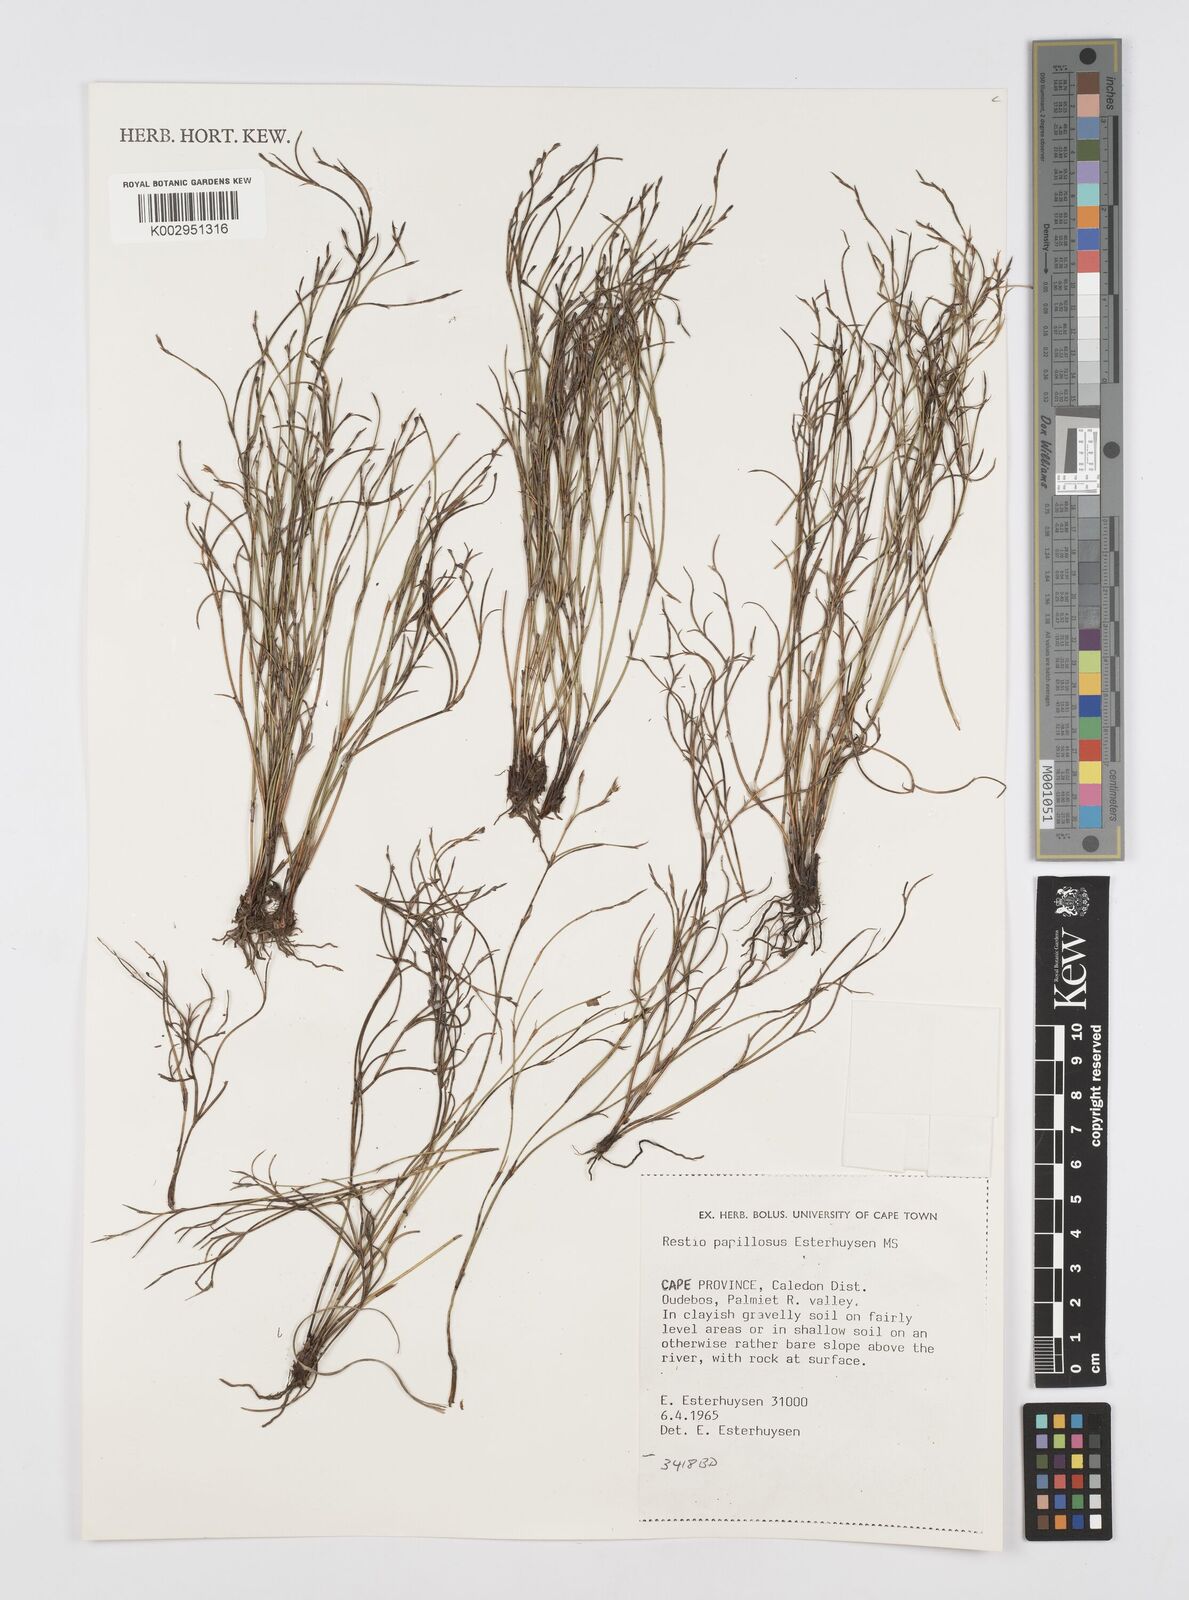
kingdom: Plantae
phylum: Tracheophyta
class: Liliopsida
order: Poales
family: Restionaceae
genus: Restio
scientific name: Restio papillosus
